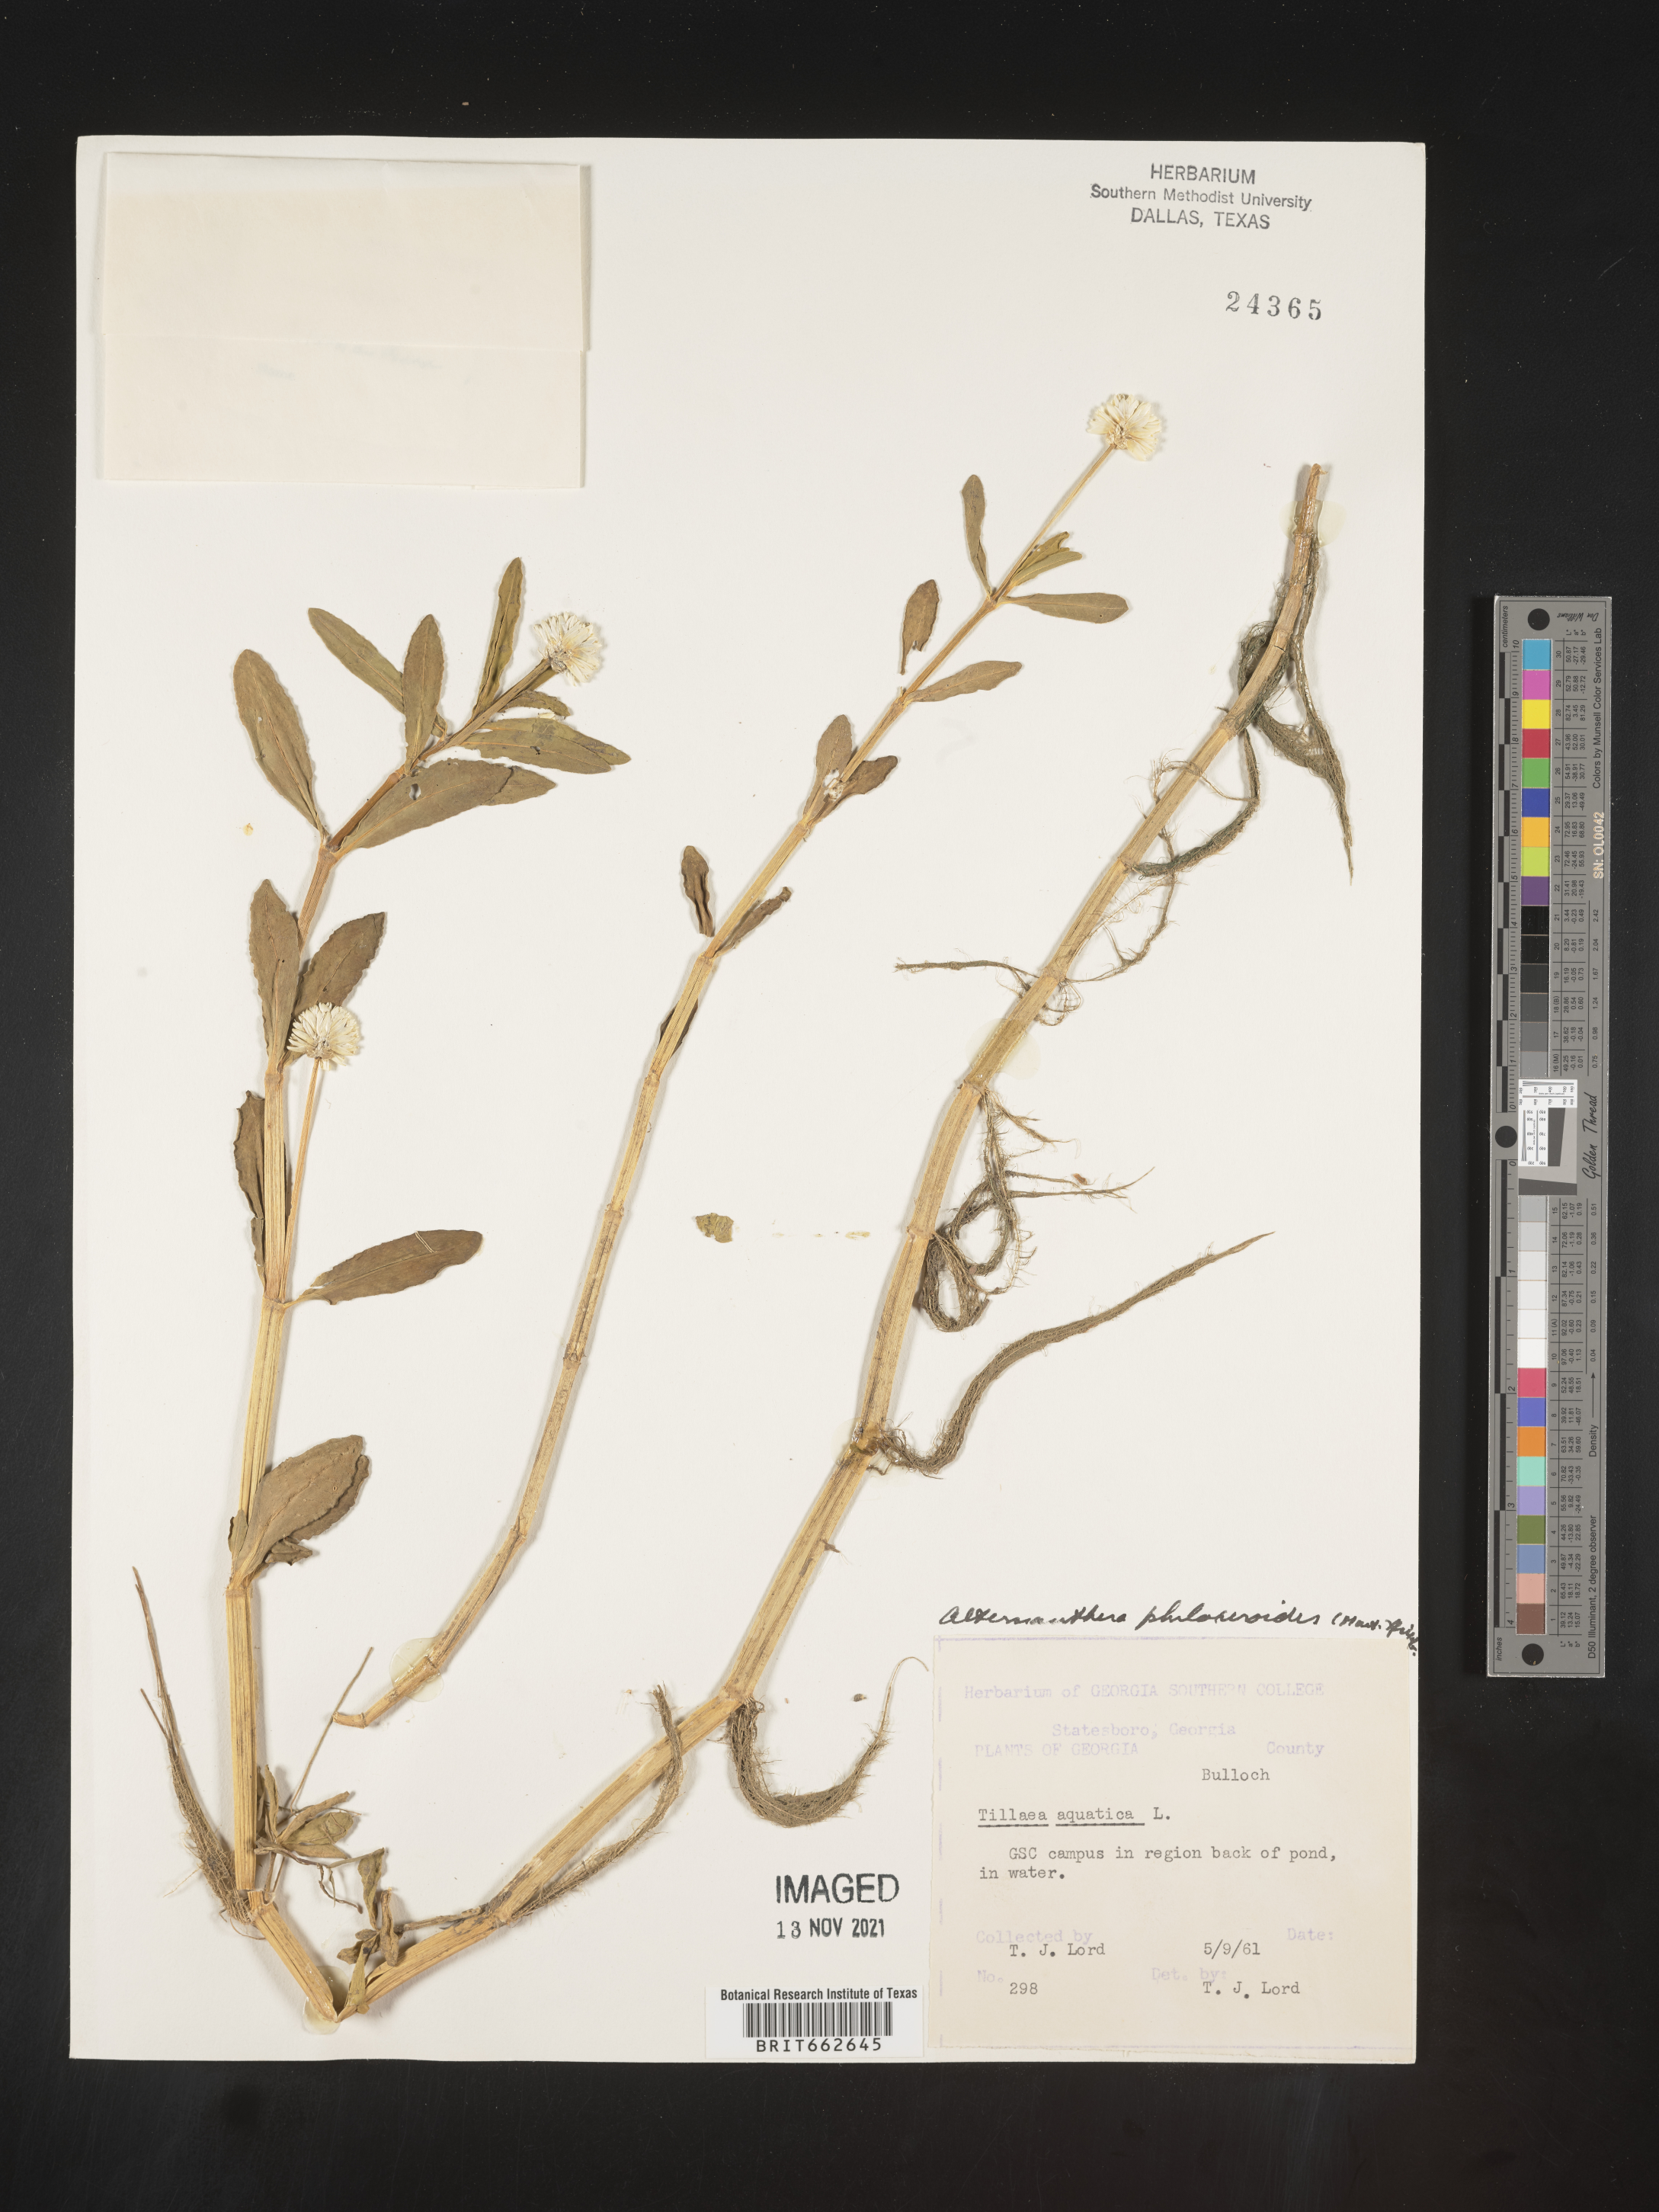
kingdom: Plantae
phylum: Tracheophyta
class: Magnoliopsida
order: Caryophyllales
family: Amaranthaceae
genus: Alternanthera
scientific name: Alternanthera philoxeroides
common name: Alligatorweed
